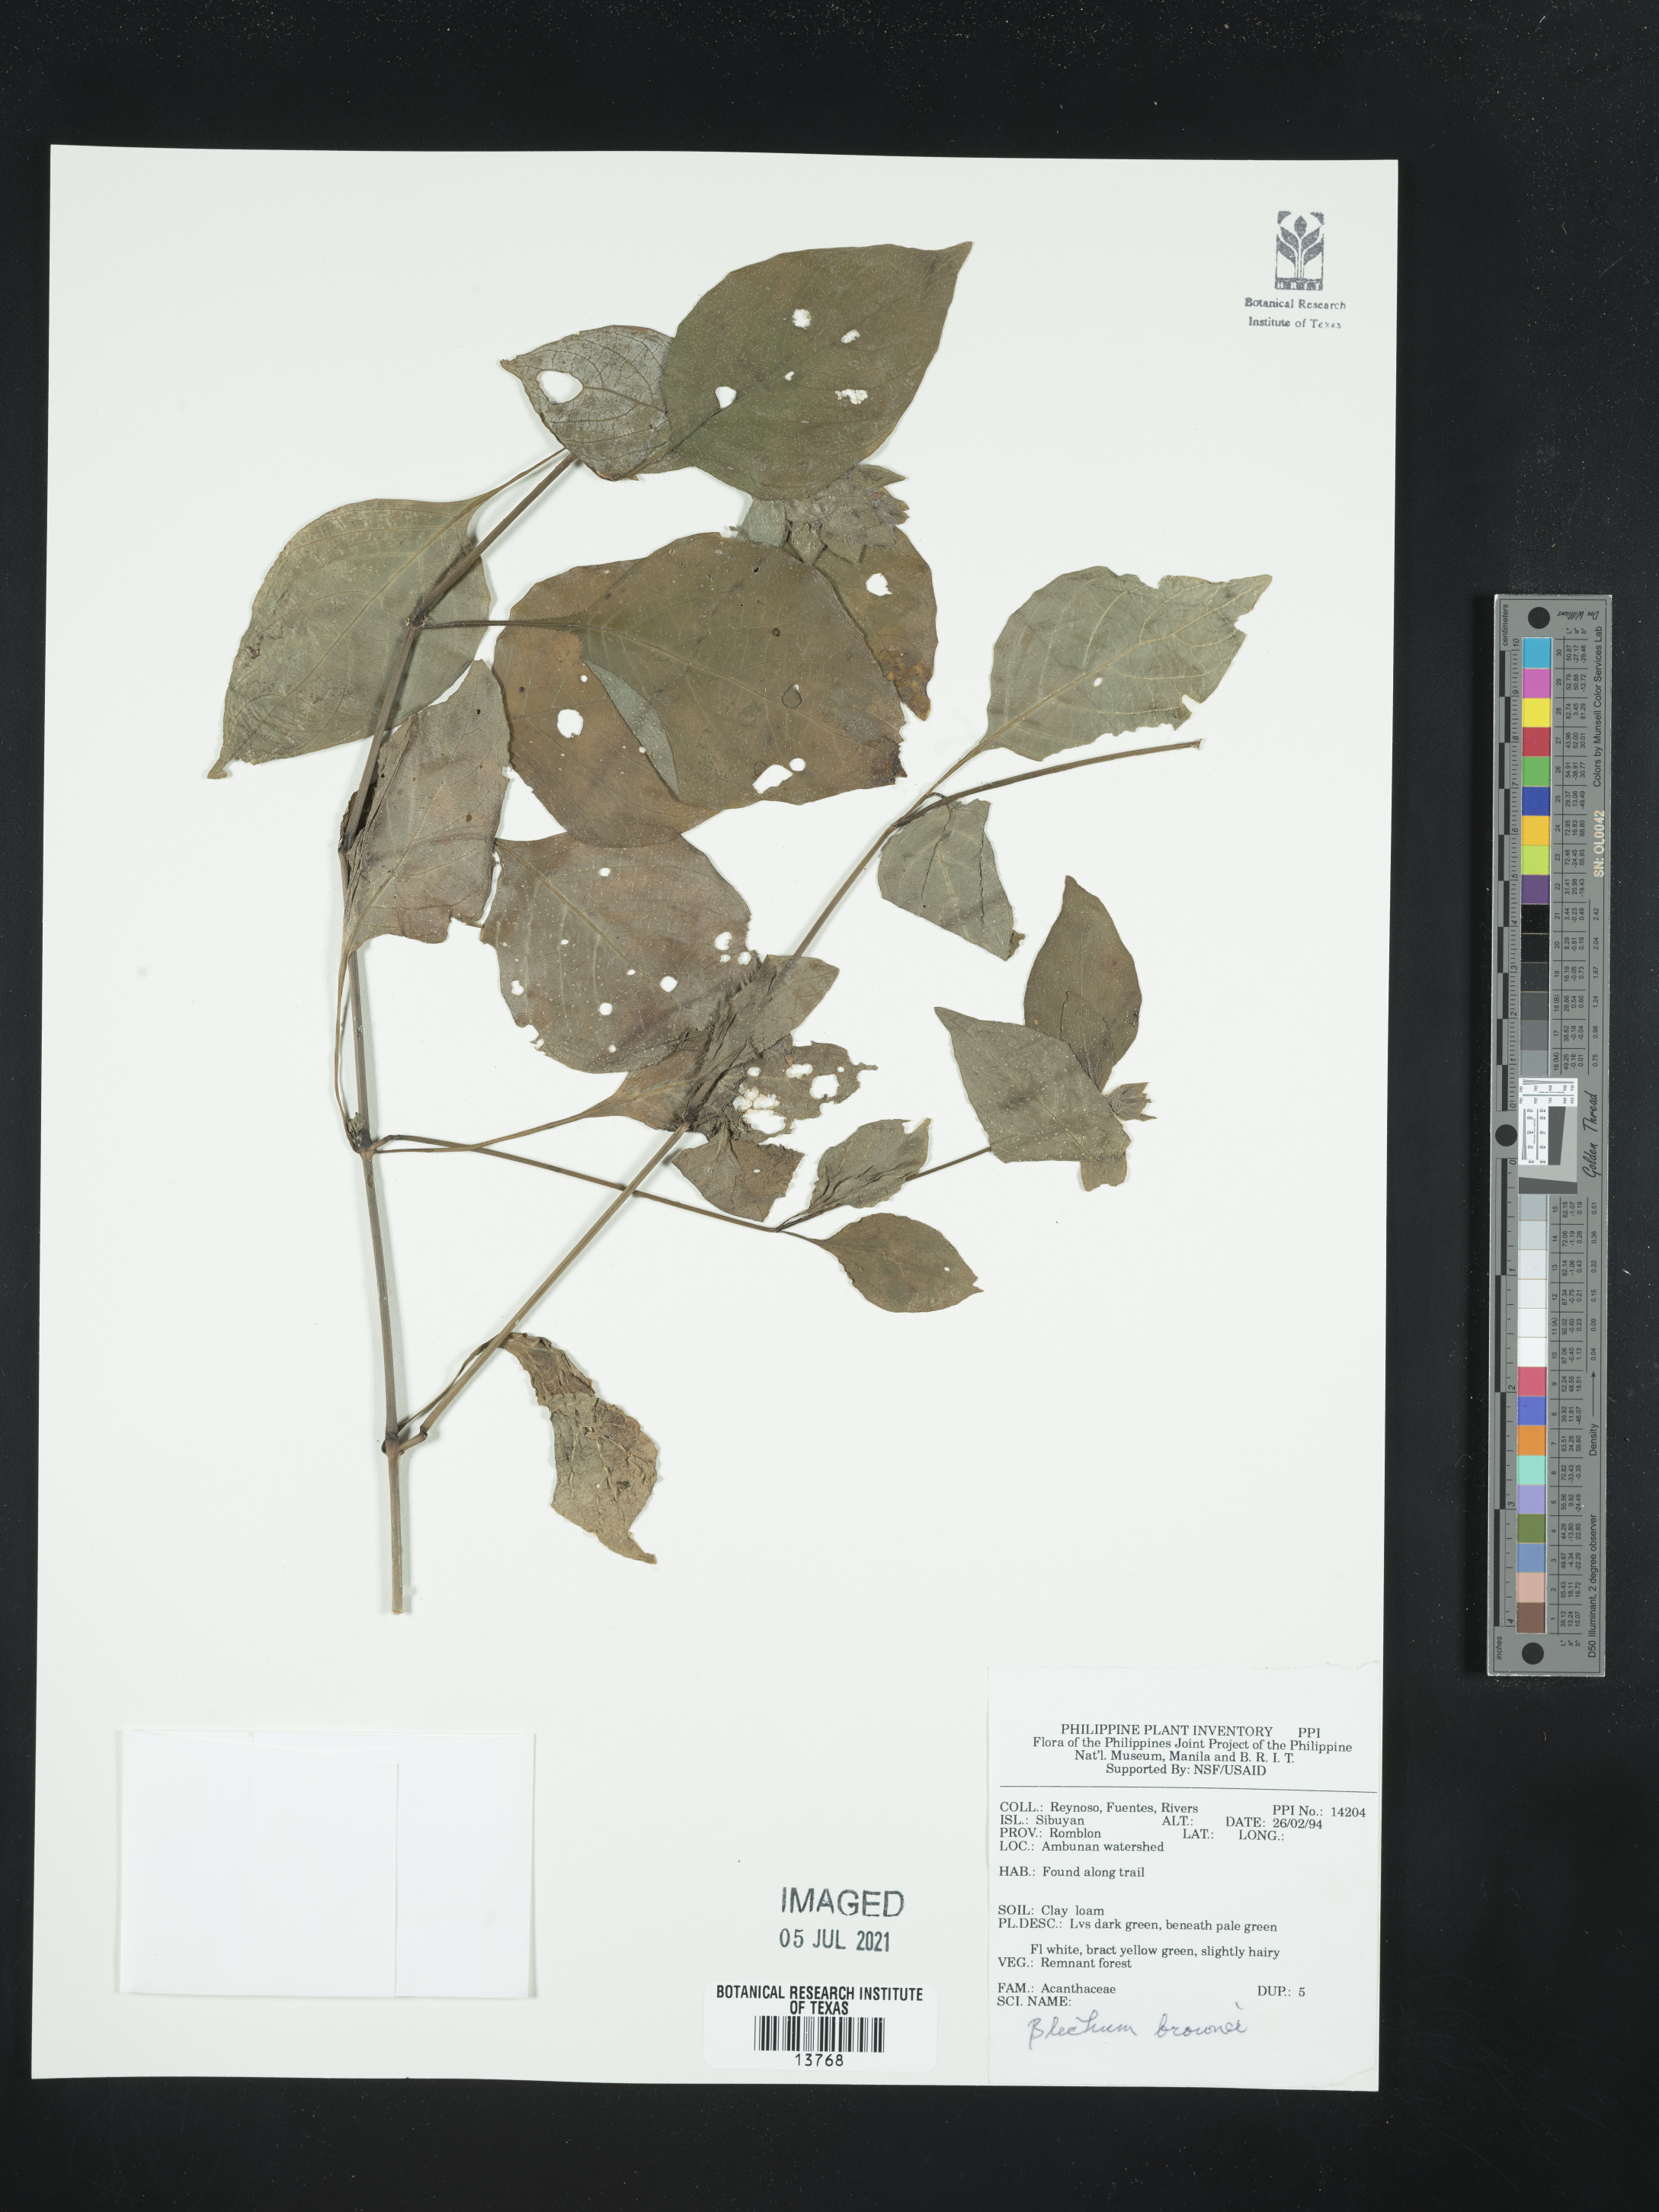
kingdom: Plantae
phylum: Tracheophyta
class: Magnoliopsida
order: Lamiales
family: Acanthaceae
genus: Ruellia
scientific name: Ruellia blechum
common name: Browne's blechum
